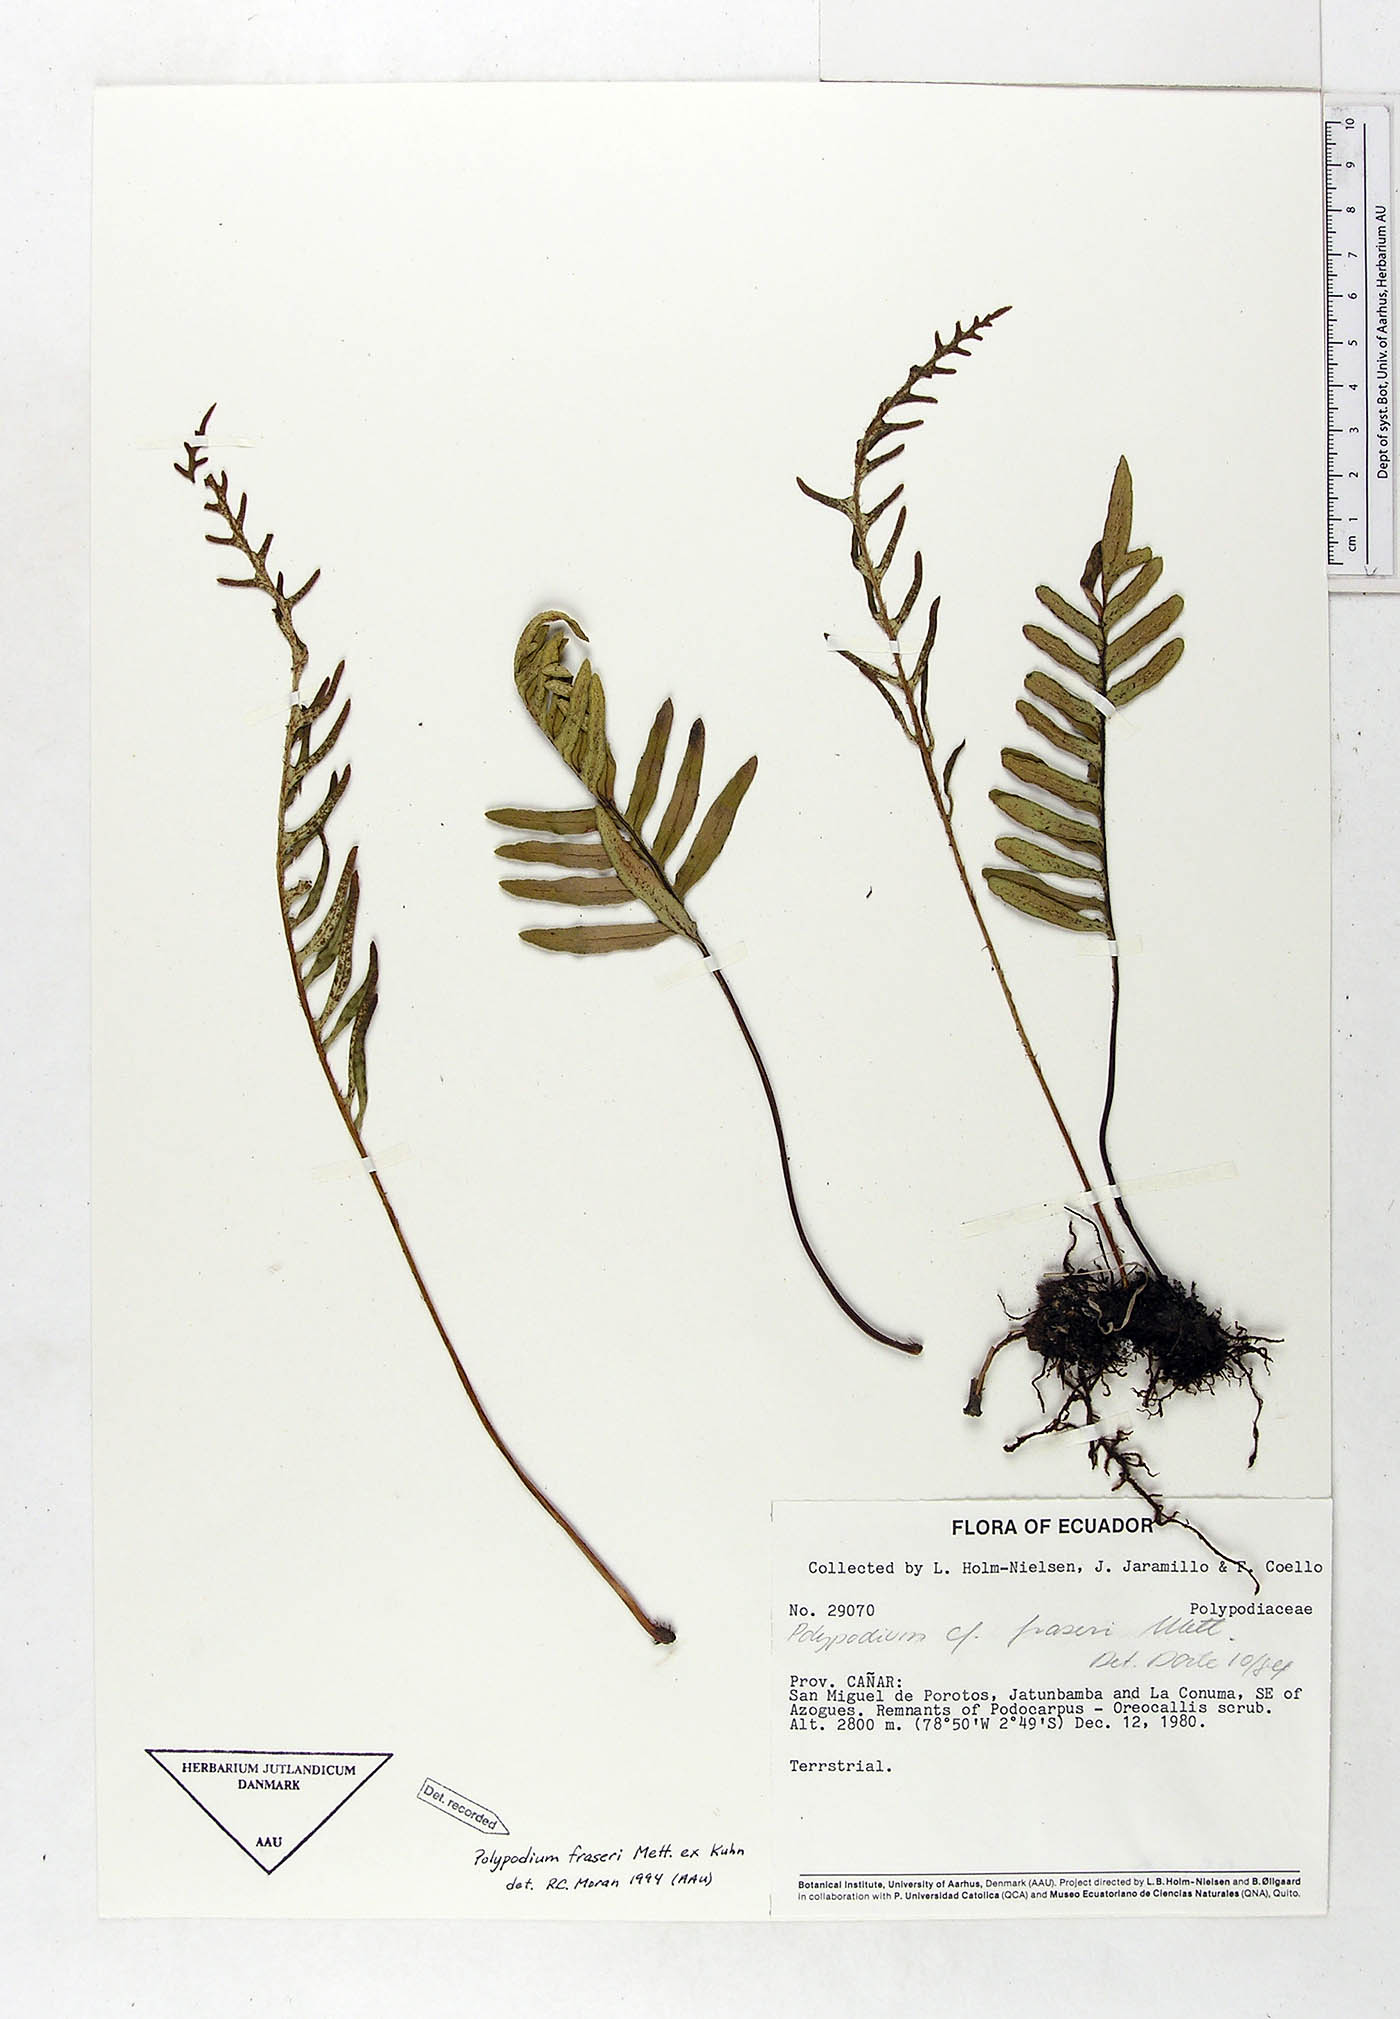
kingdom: Plantae
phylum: Tracheophyta
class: Polypodiopsida
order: Polypodiales
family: Polypodiaceae
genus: Pleopeltis
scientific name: Pleopeltis fraseri
